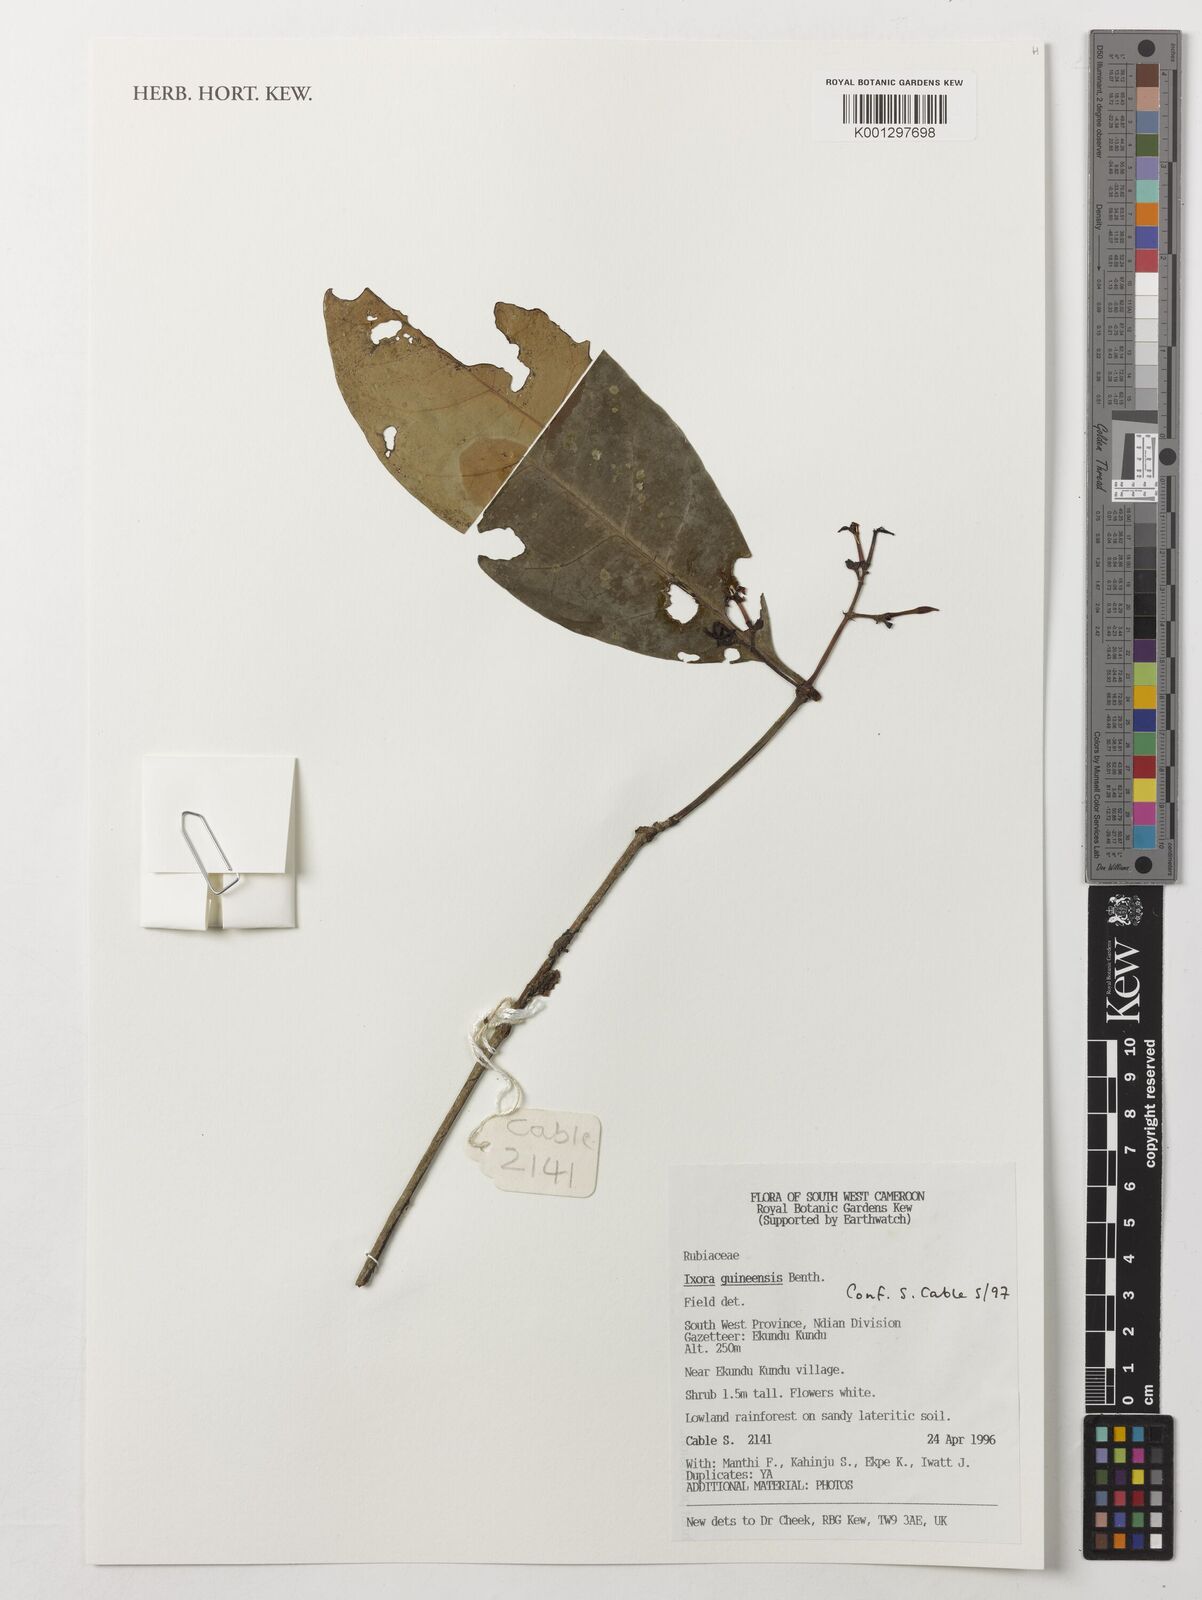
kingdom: Plantae
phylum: Tracheophyta
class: Magnoliopsida
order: Gentianales
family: Rubiaceae
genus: Ixora
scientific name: Ixora guineensis
